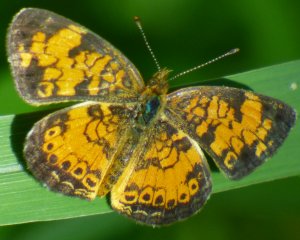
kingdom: Animalia
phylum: Arthropoda
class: Insecta
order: Lepidoptera
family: Nymphalidae
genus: Phyciodes
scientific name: Phyciodes tharos
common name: Pearl Crescent
